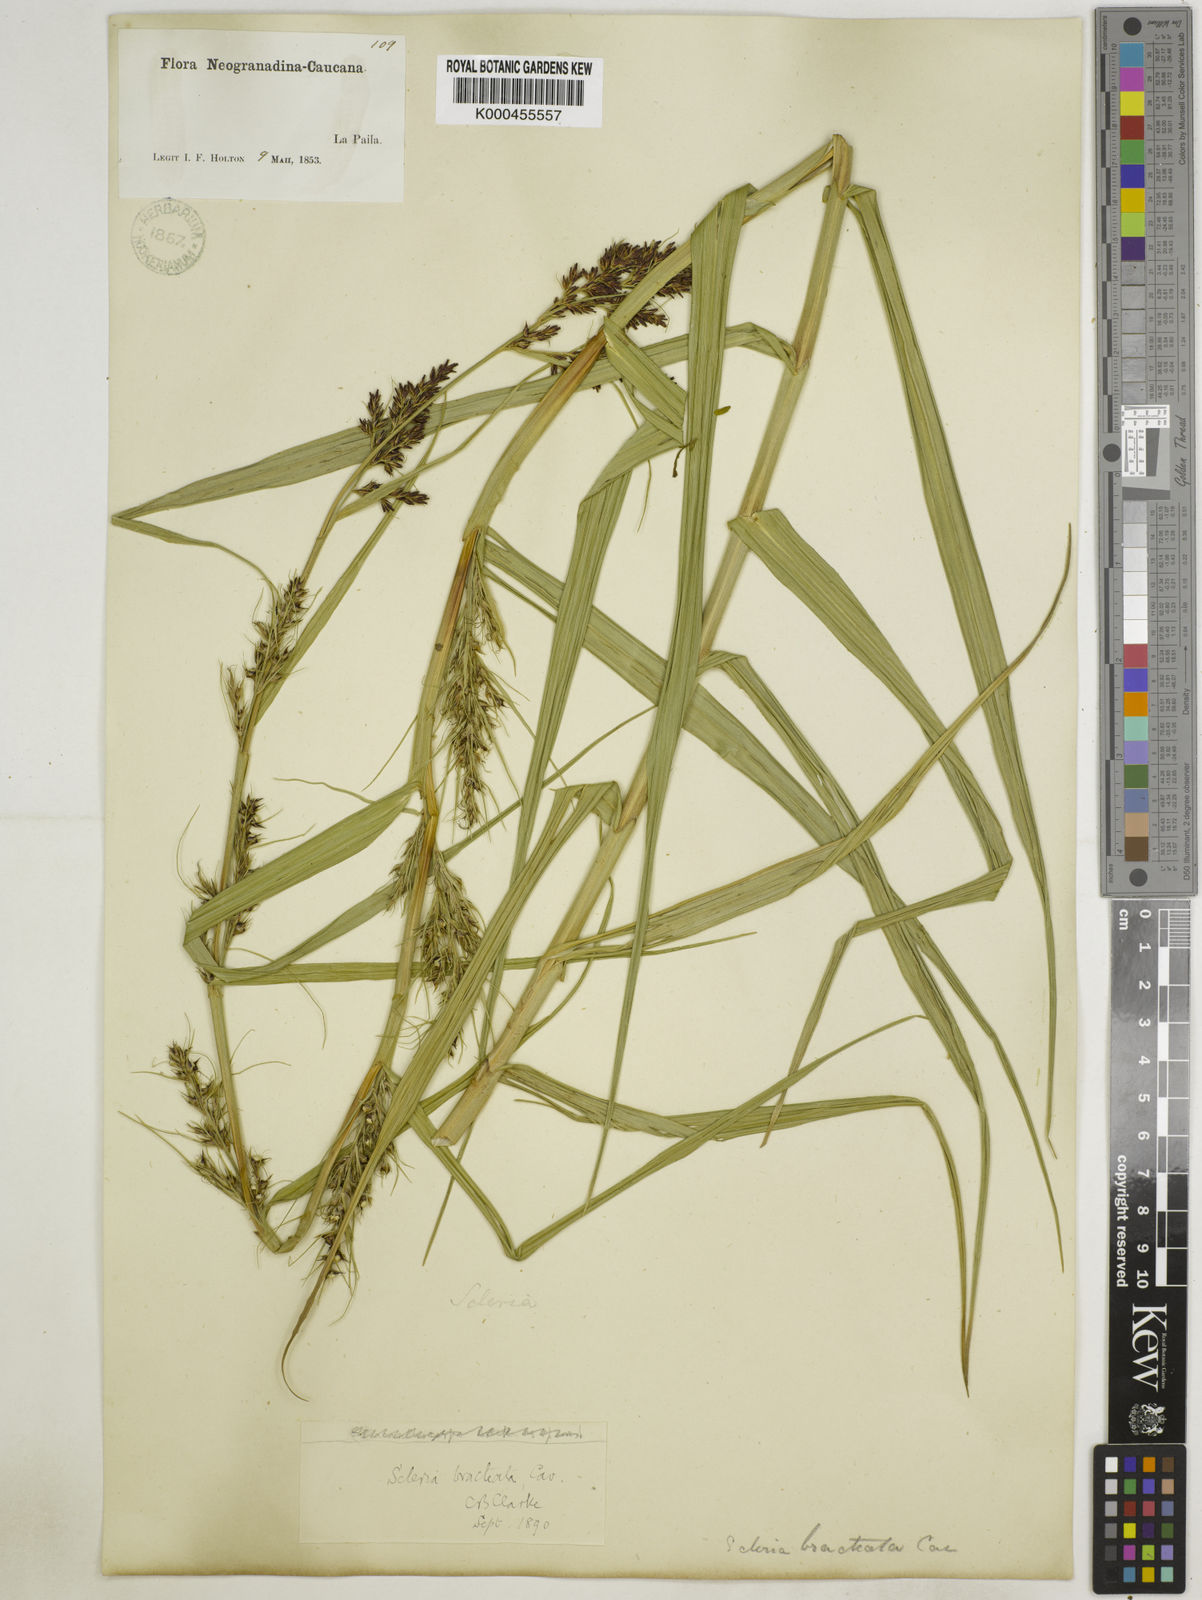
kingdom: Plantae
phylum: Tracheophyta
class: Liliopsida
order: Poales
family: Cyperaceae
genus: Scleria
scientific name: Scleria bracteata
